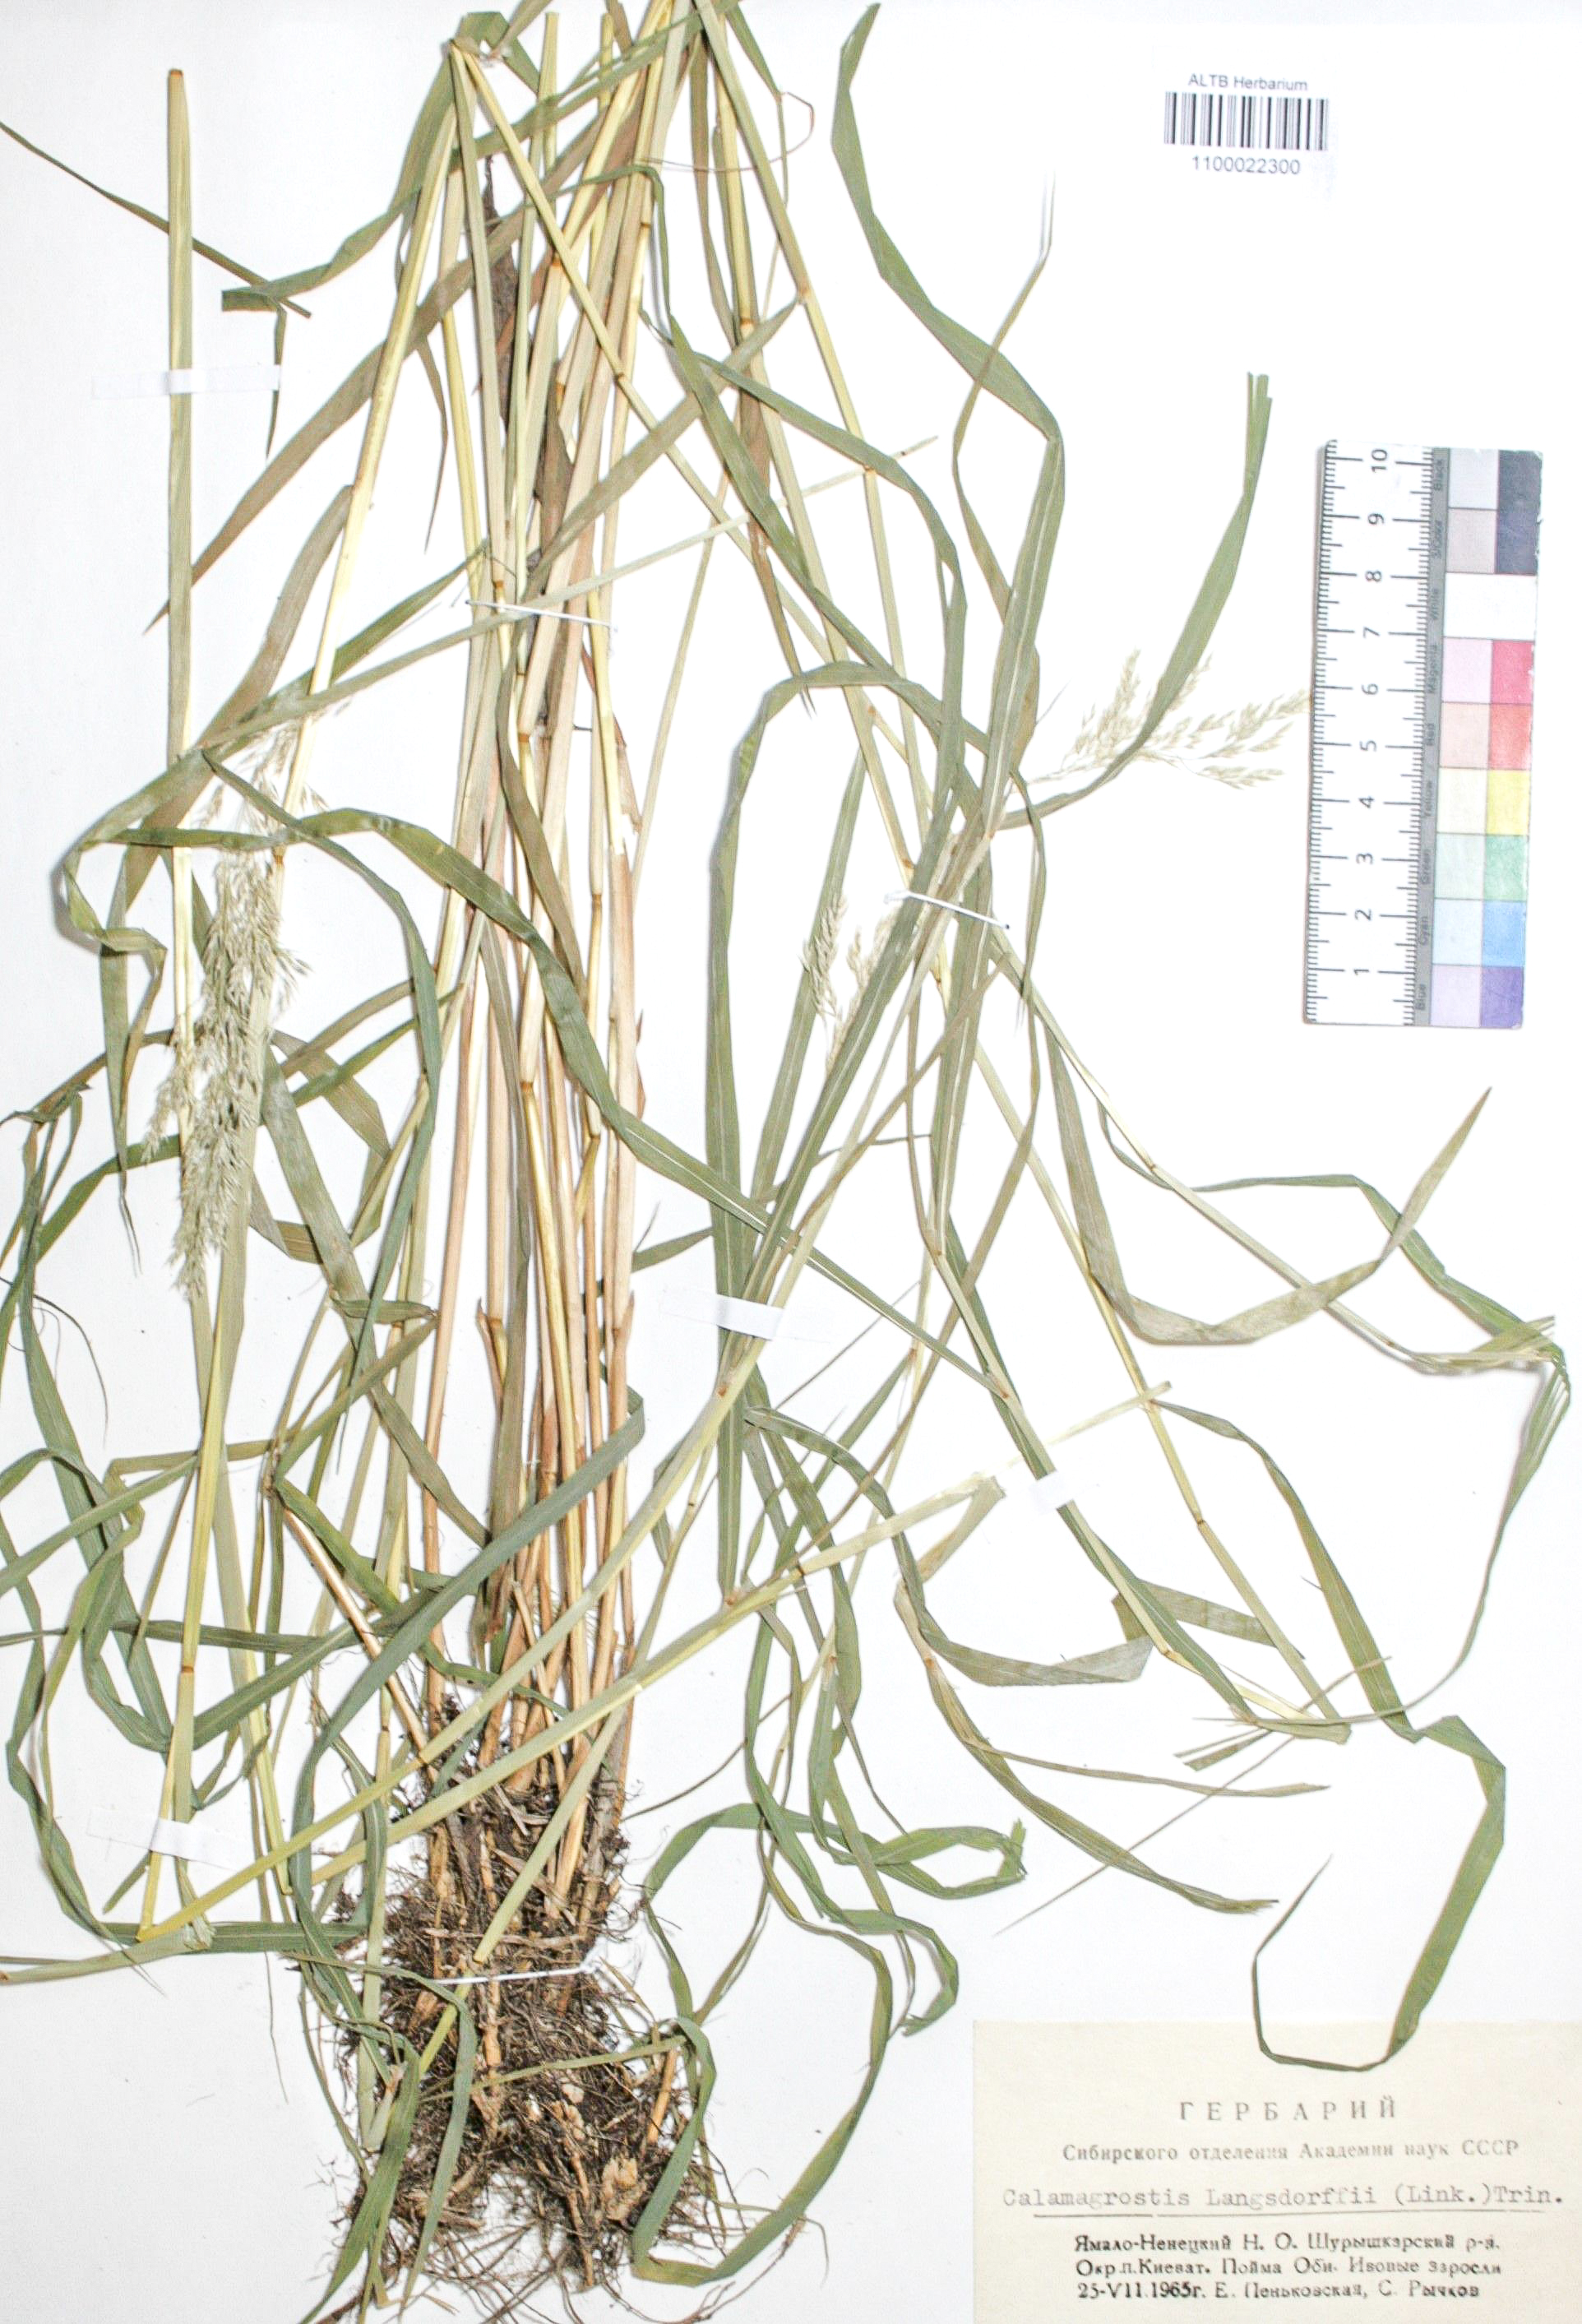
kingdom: Plantae
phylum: Tracheophyta
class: Liliopsida
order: Poales
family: Poaceae
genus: Calamagrostis
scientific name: Calamagrostis purpurea
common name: Scandinavian small-reed
